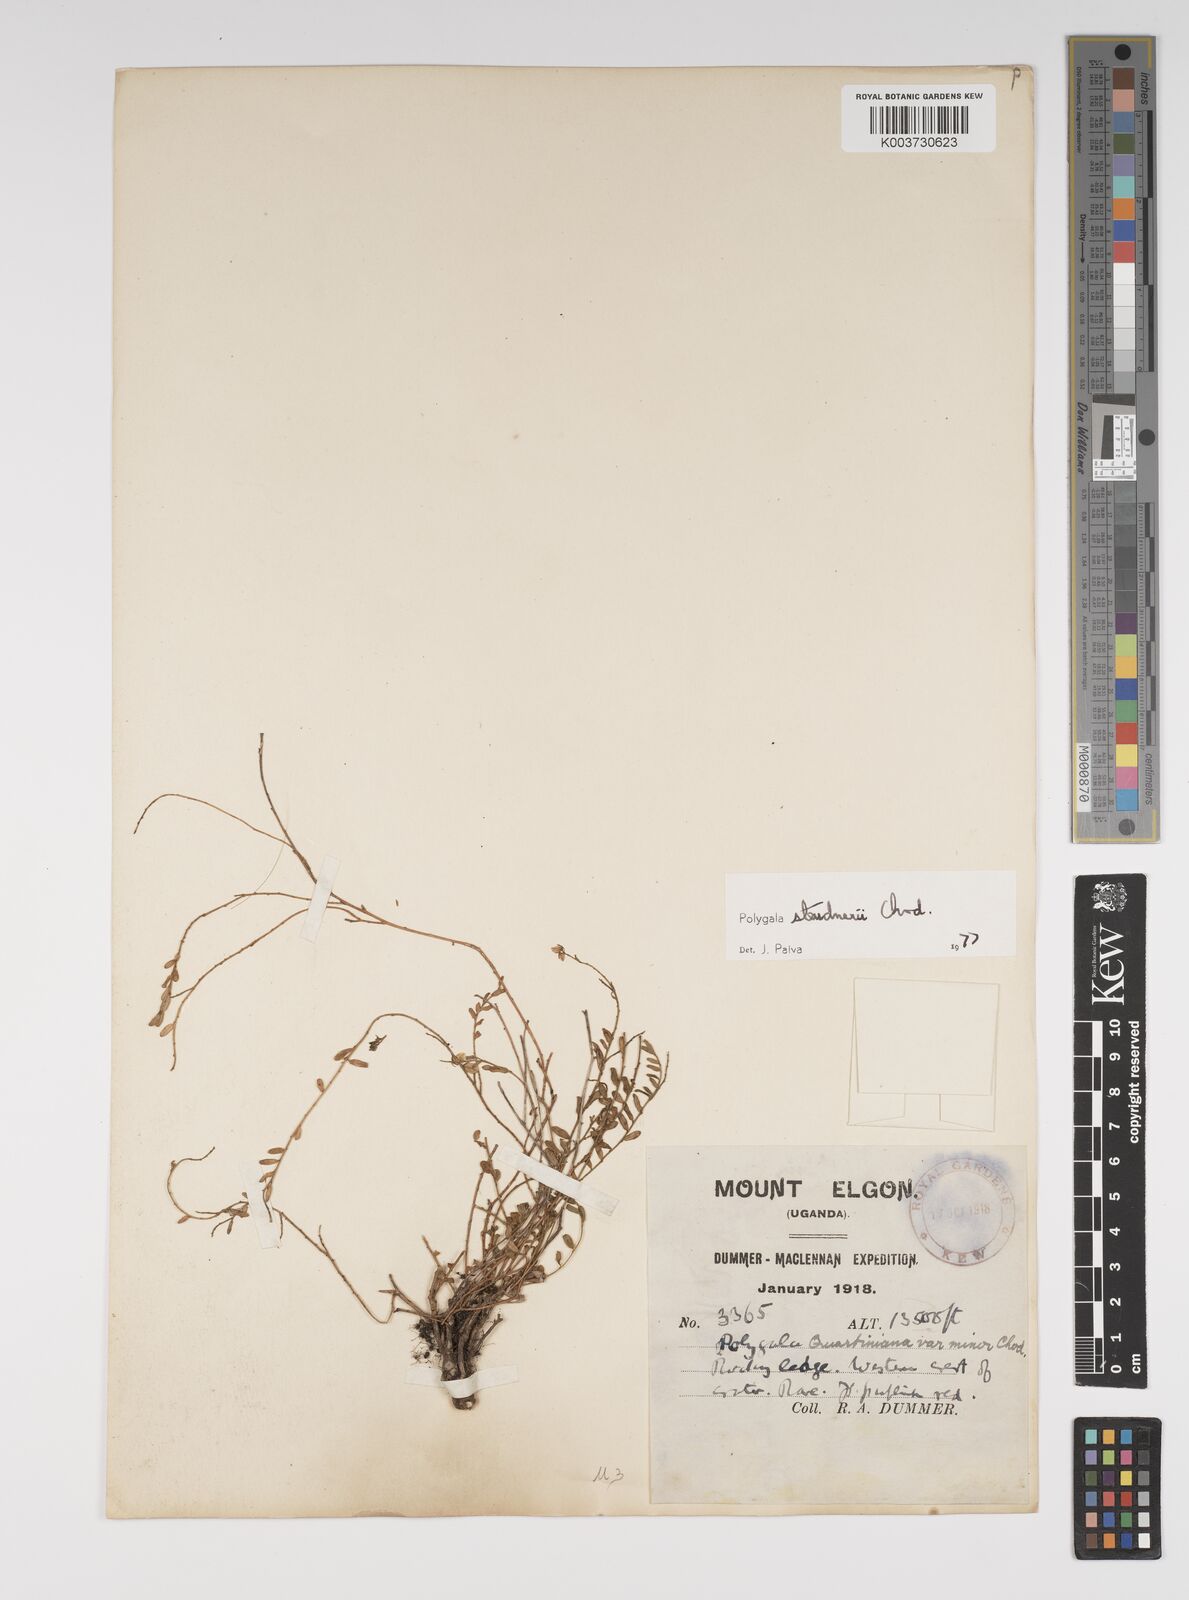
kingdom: Plantae
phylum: Tracheophyta
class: Magnoliopsida
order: Fabales
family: Polygalaceae
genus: Polygala
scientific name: Polygala steudneri
